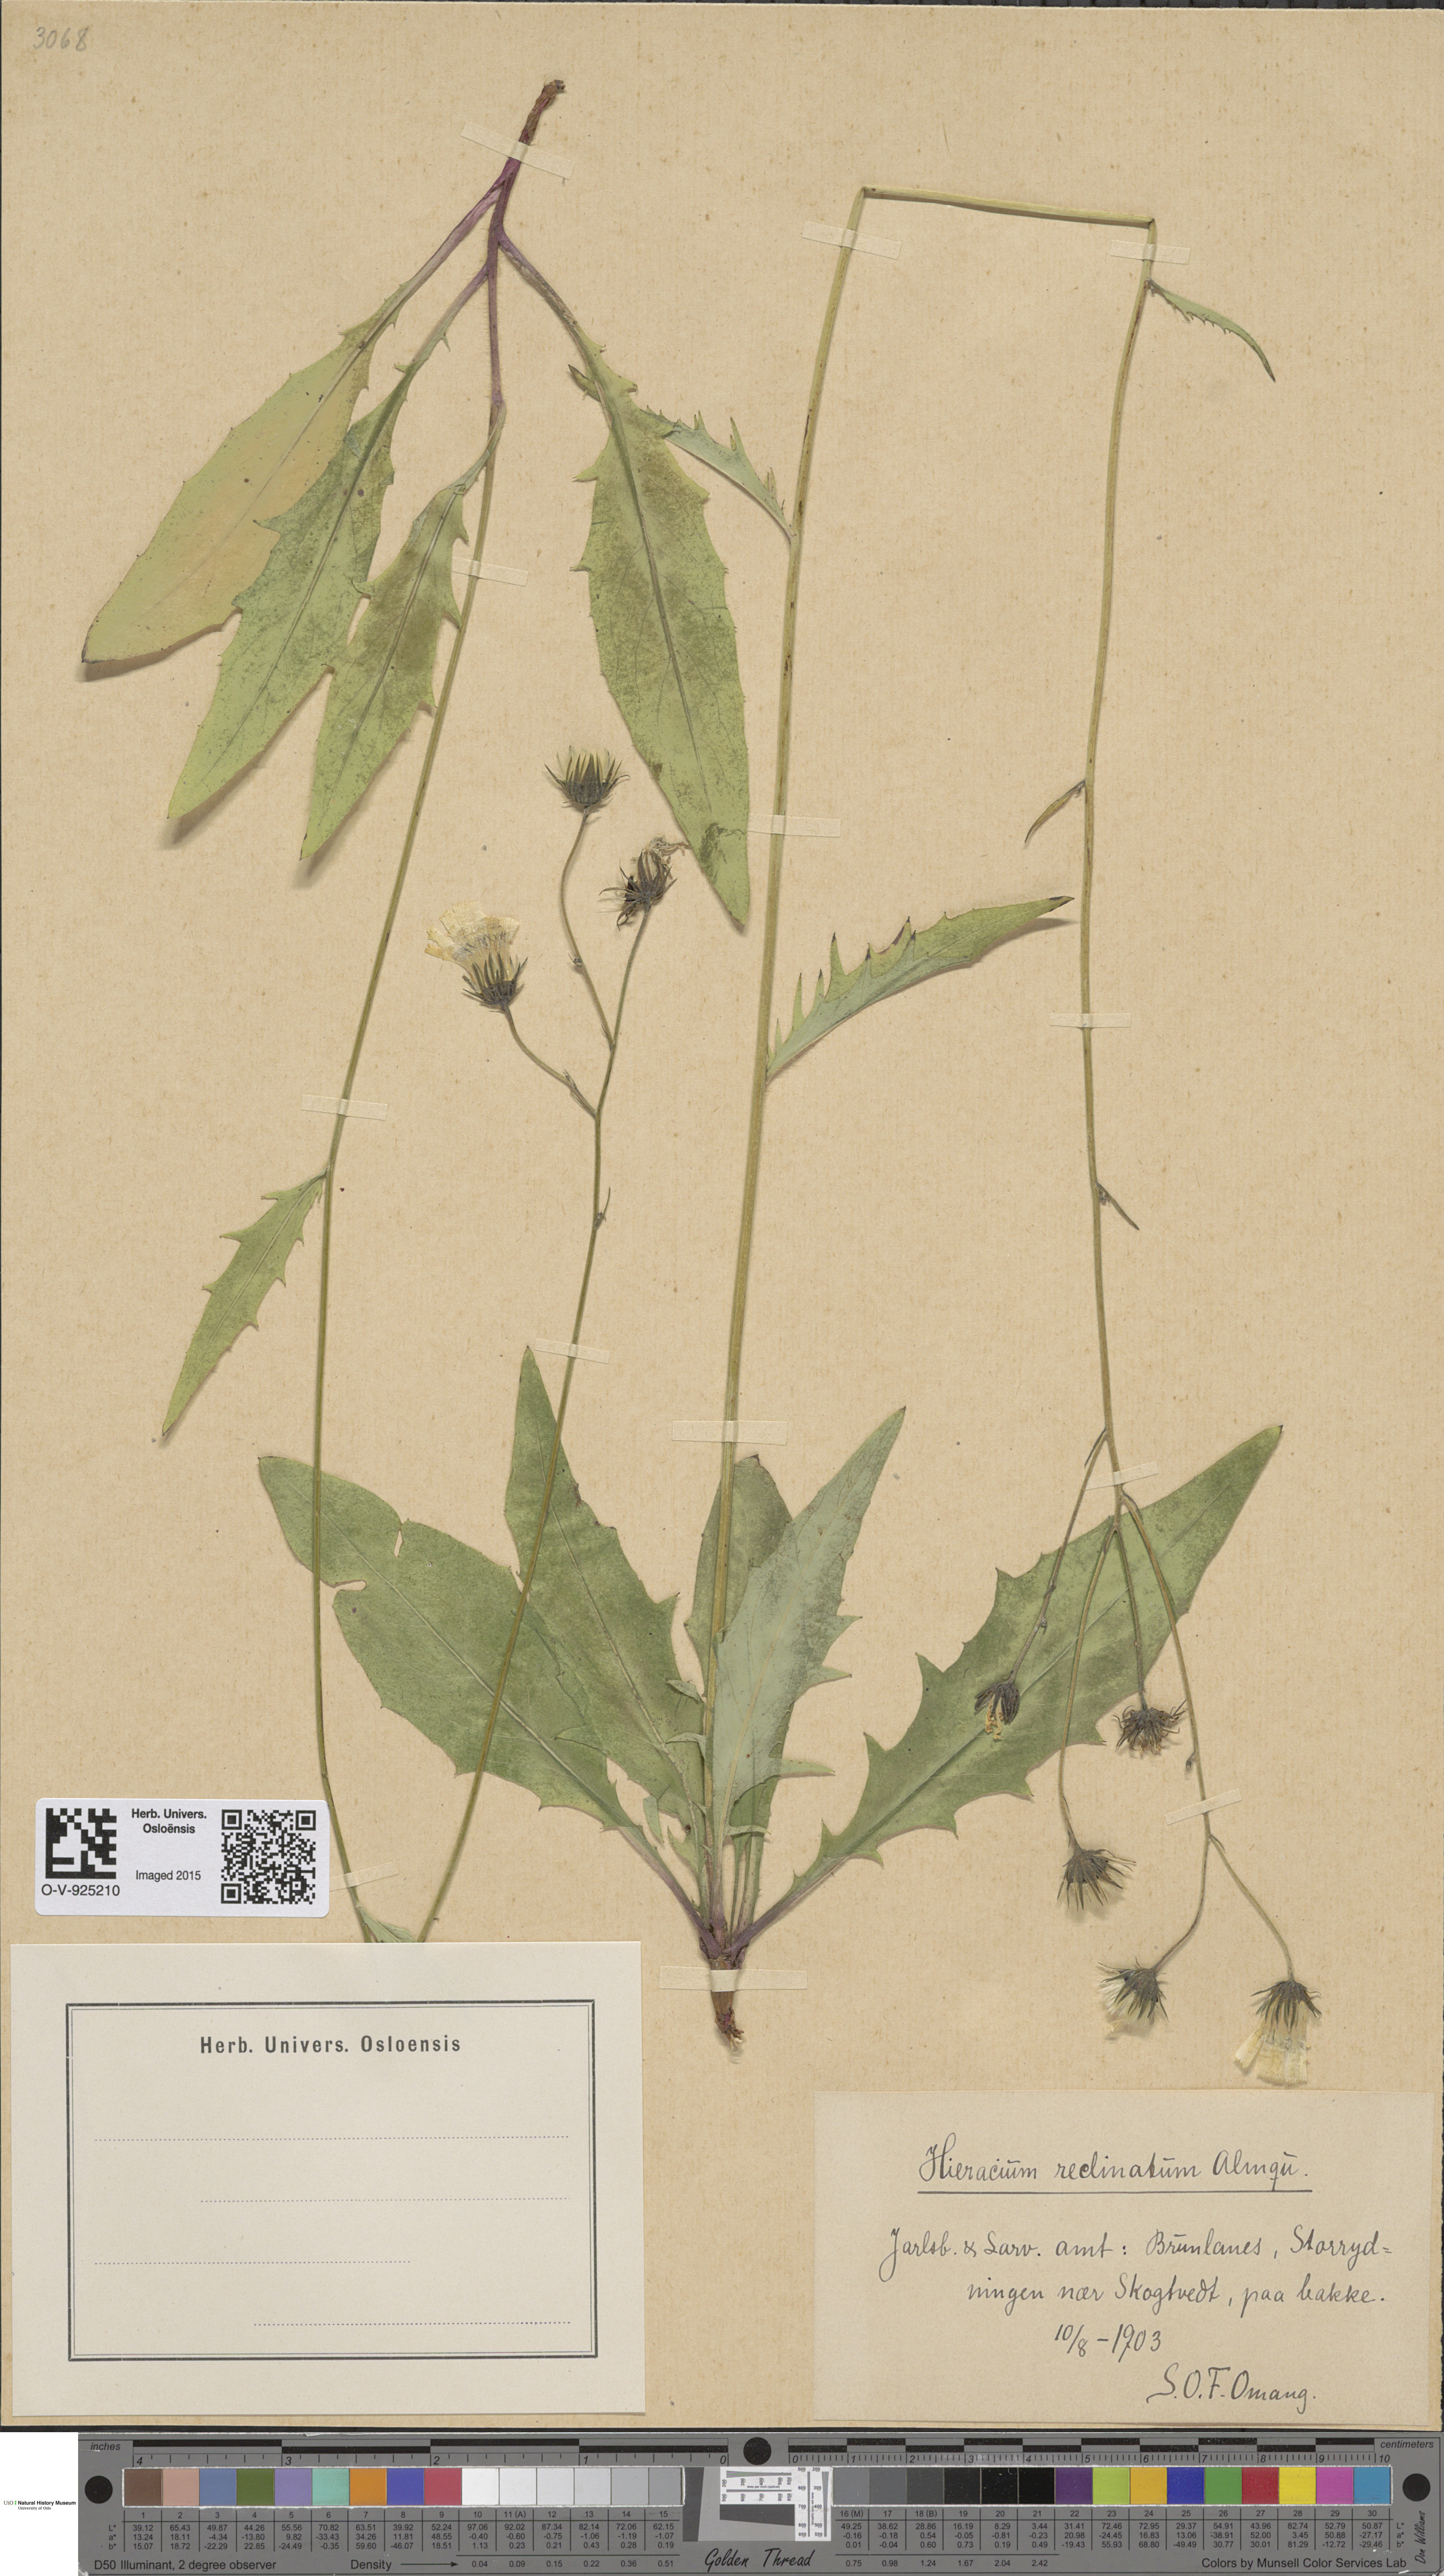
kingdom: Plantae
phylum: Tracheophyta
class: Magnoliopsida
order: Asterales
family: Asteraceae
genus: Hieracium
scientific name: Hieracium caesium
